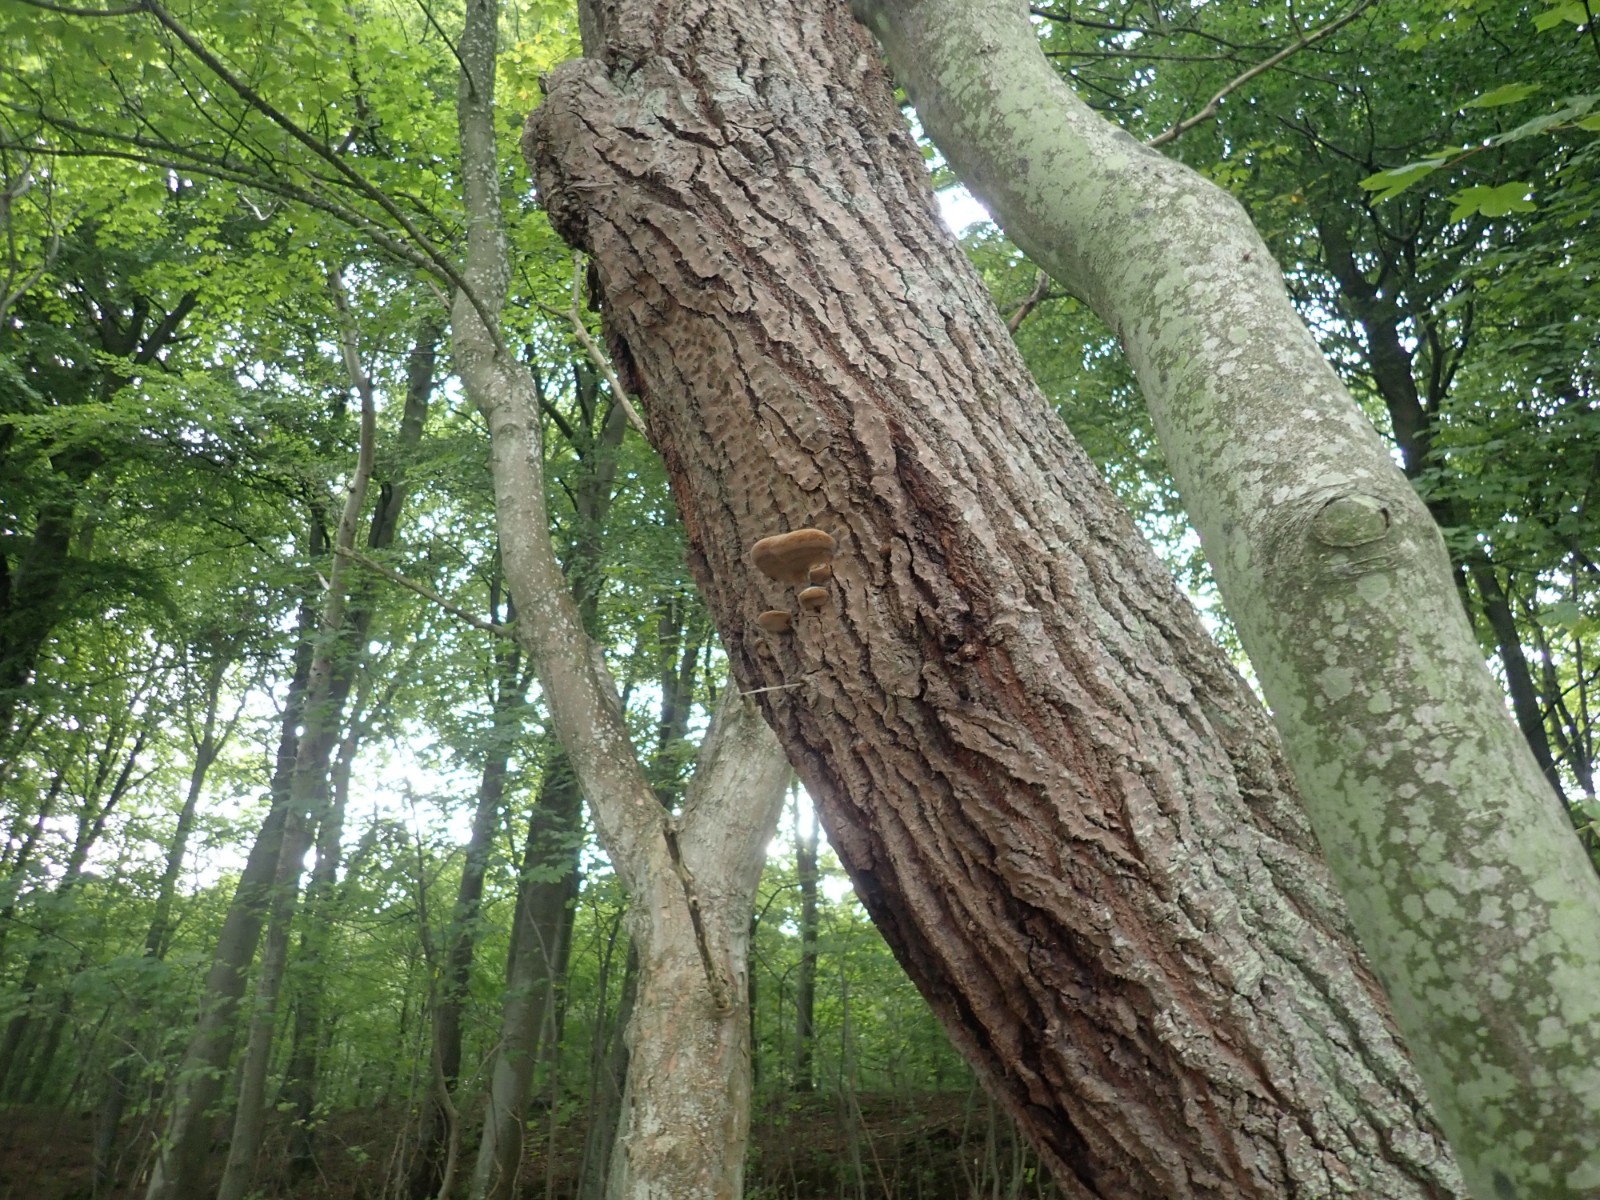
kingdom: Fungi
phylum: Basidiomycota
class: Agaricomycetes
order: Hymenochaetales
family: Hymenochaetaceae
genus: Phellinus
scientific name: Phellinus populicola
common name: poppel-ildporesvamp
